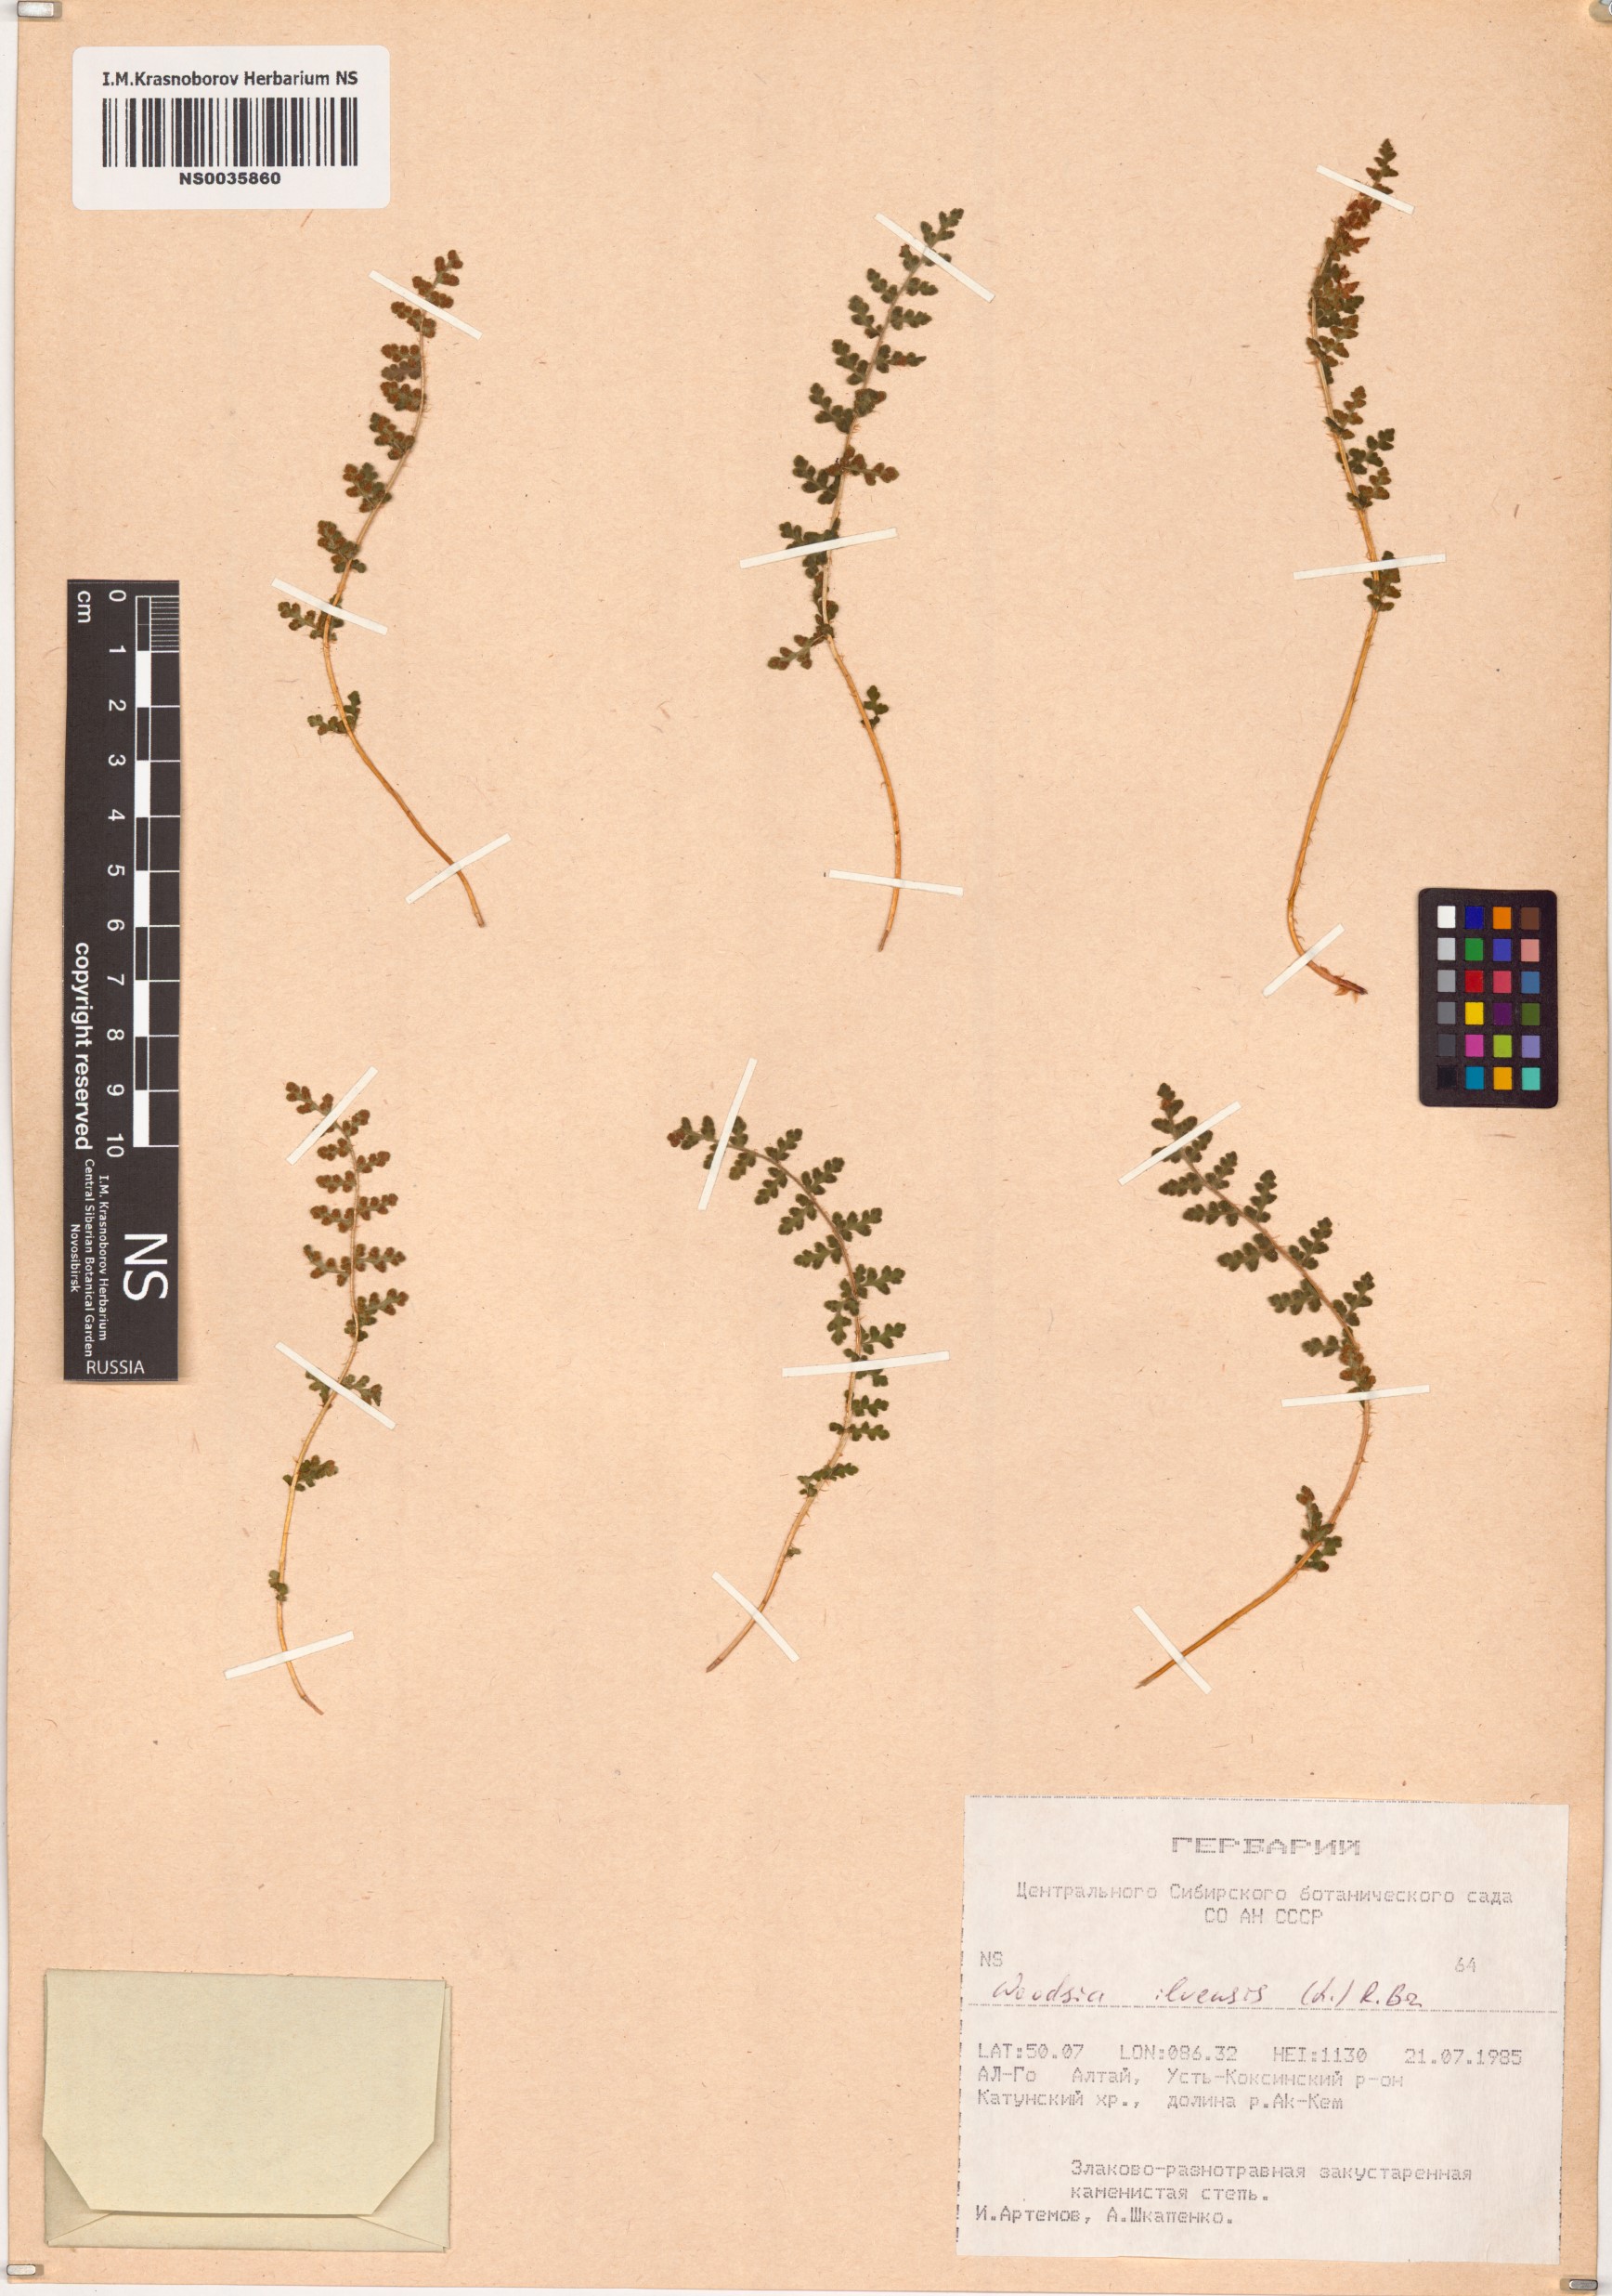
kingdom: Plantae
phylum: Tracheophyta
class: Polypodiopsida
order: Polypodiales
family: Woodsiaceae
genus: Woodsia
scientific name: Woodsia ilvensis
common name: Fragrant woodsia
